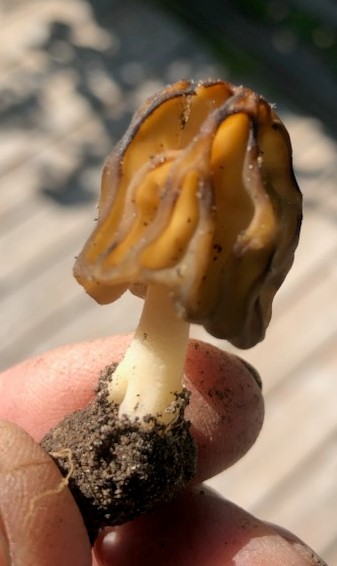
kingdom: Fungi
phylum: Ascomycota
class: Pezizomycetes
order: Pezizales
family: Morchellaceae
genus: Morchella
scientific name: Morchella semilibera
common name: hætte-morkel
